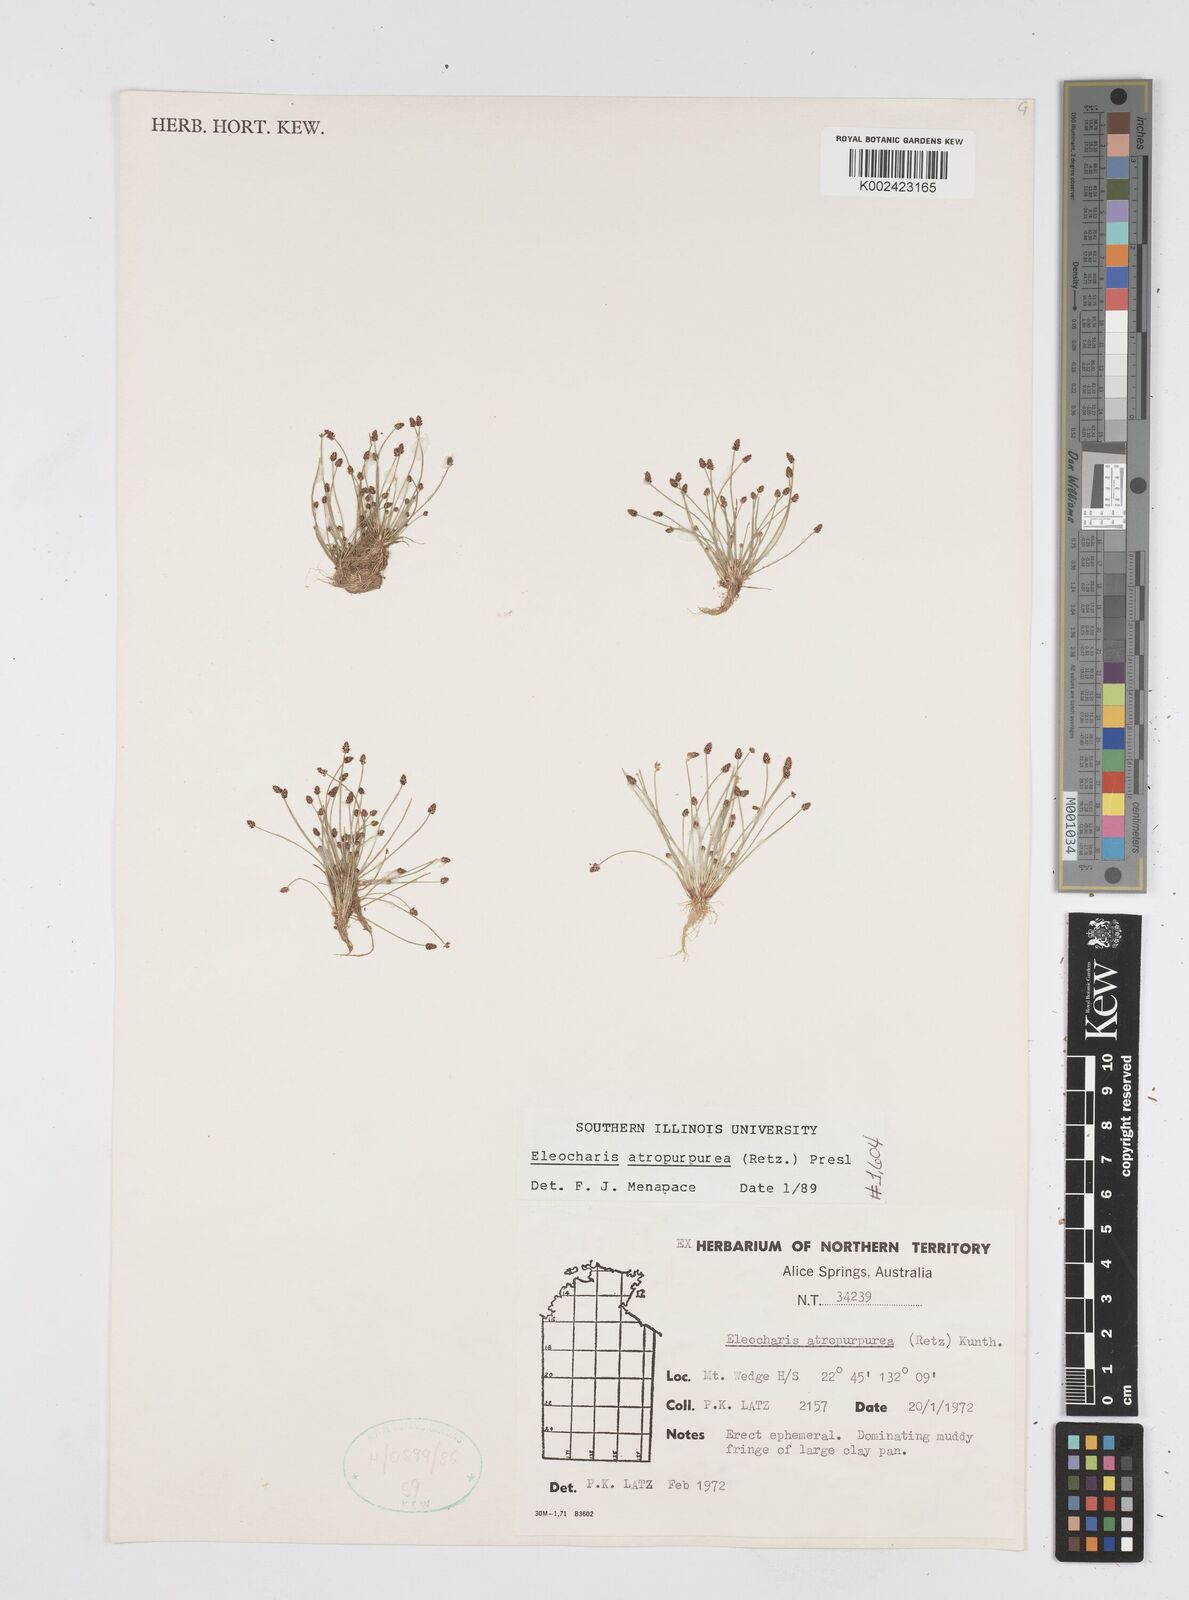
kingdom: Plantae
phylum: Tracheophyta
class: Liliopsida
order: Poales
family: Cyperaceae
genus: Eleocharis
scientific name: Eleocharis atropurpurea
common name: Purple spikerush
